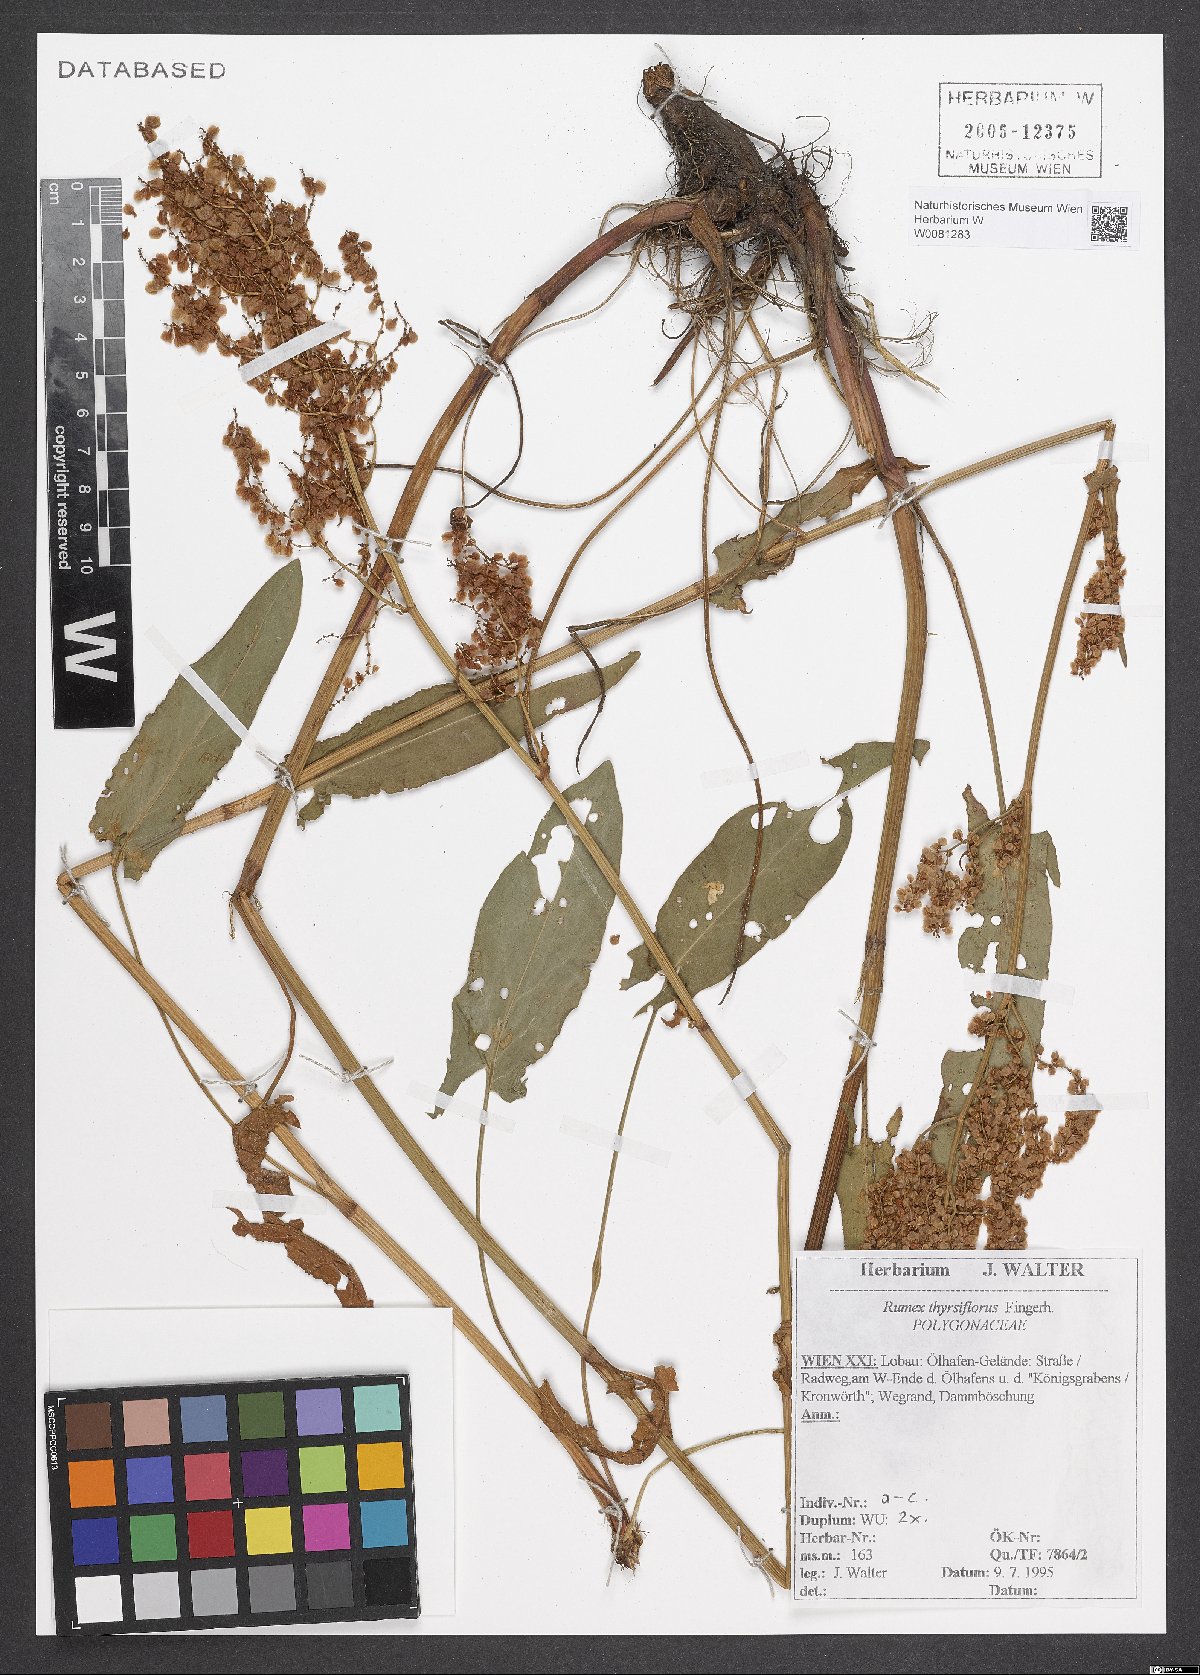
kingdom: Plantae
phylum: Tracheophyta
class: Magnoliopsida
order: Caryophyllales
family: Polygonaceae
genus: Rumex
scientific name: Rumex thyrsiflorus
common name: Garden sorrel
